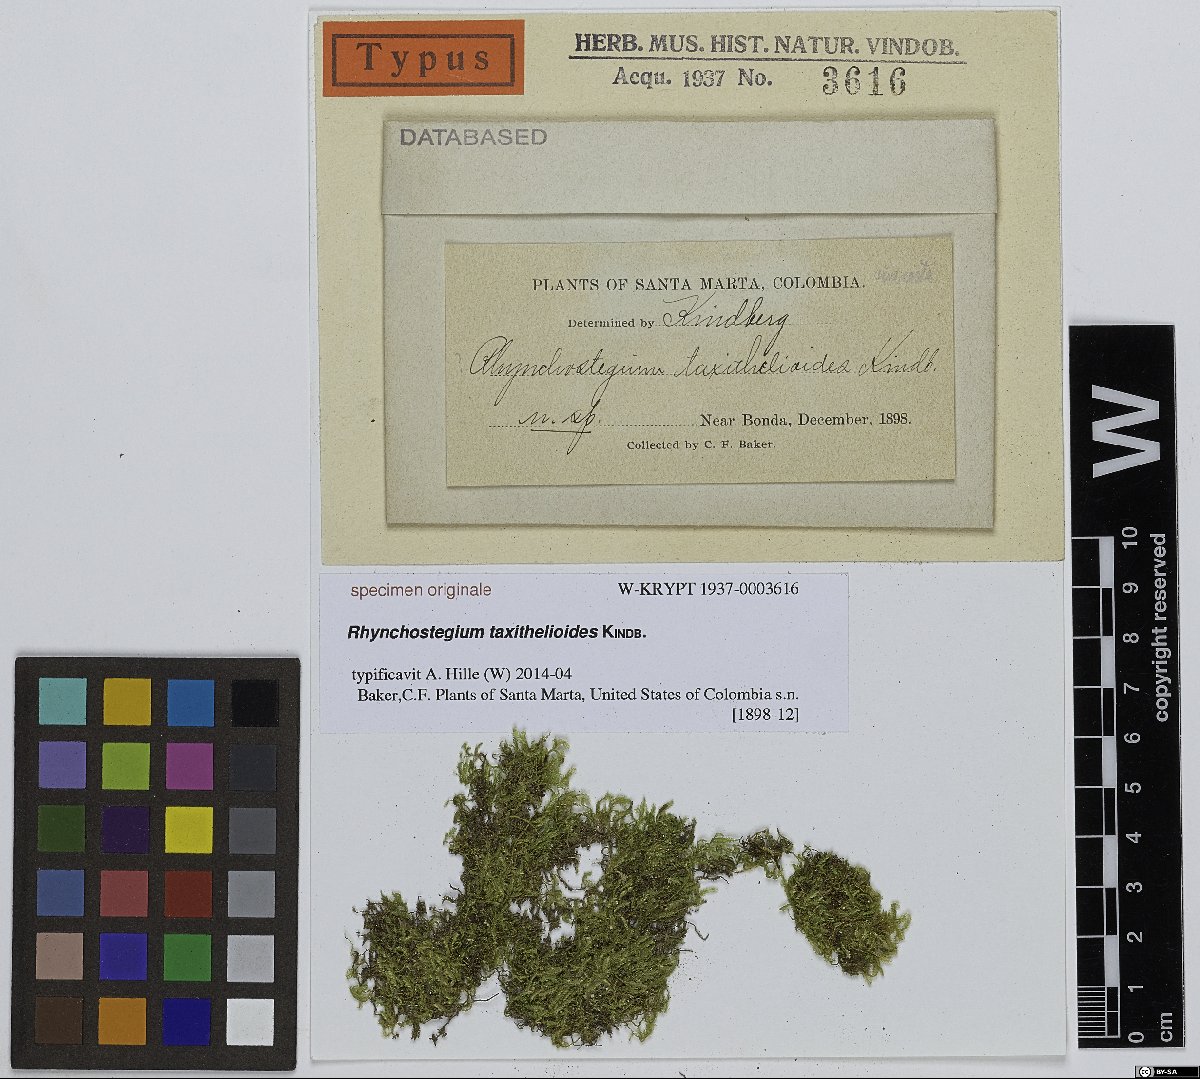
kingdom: Plantae
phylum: Bryophyta
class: Bryopsida
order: Hypnales
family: Brachytheciaceae
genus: Rhynchostegium
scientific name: Rhynchostegium
